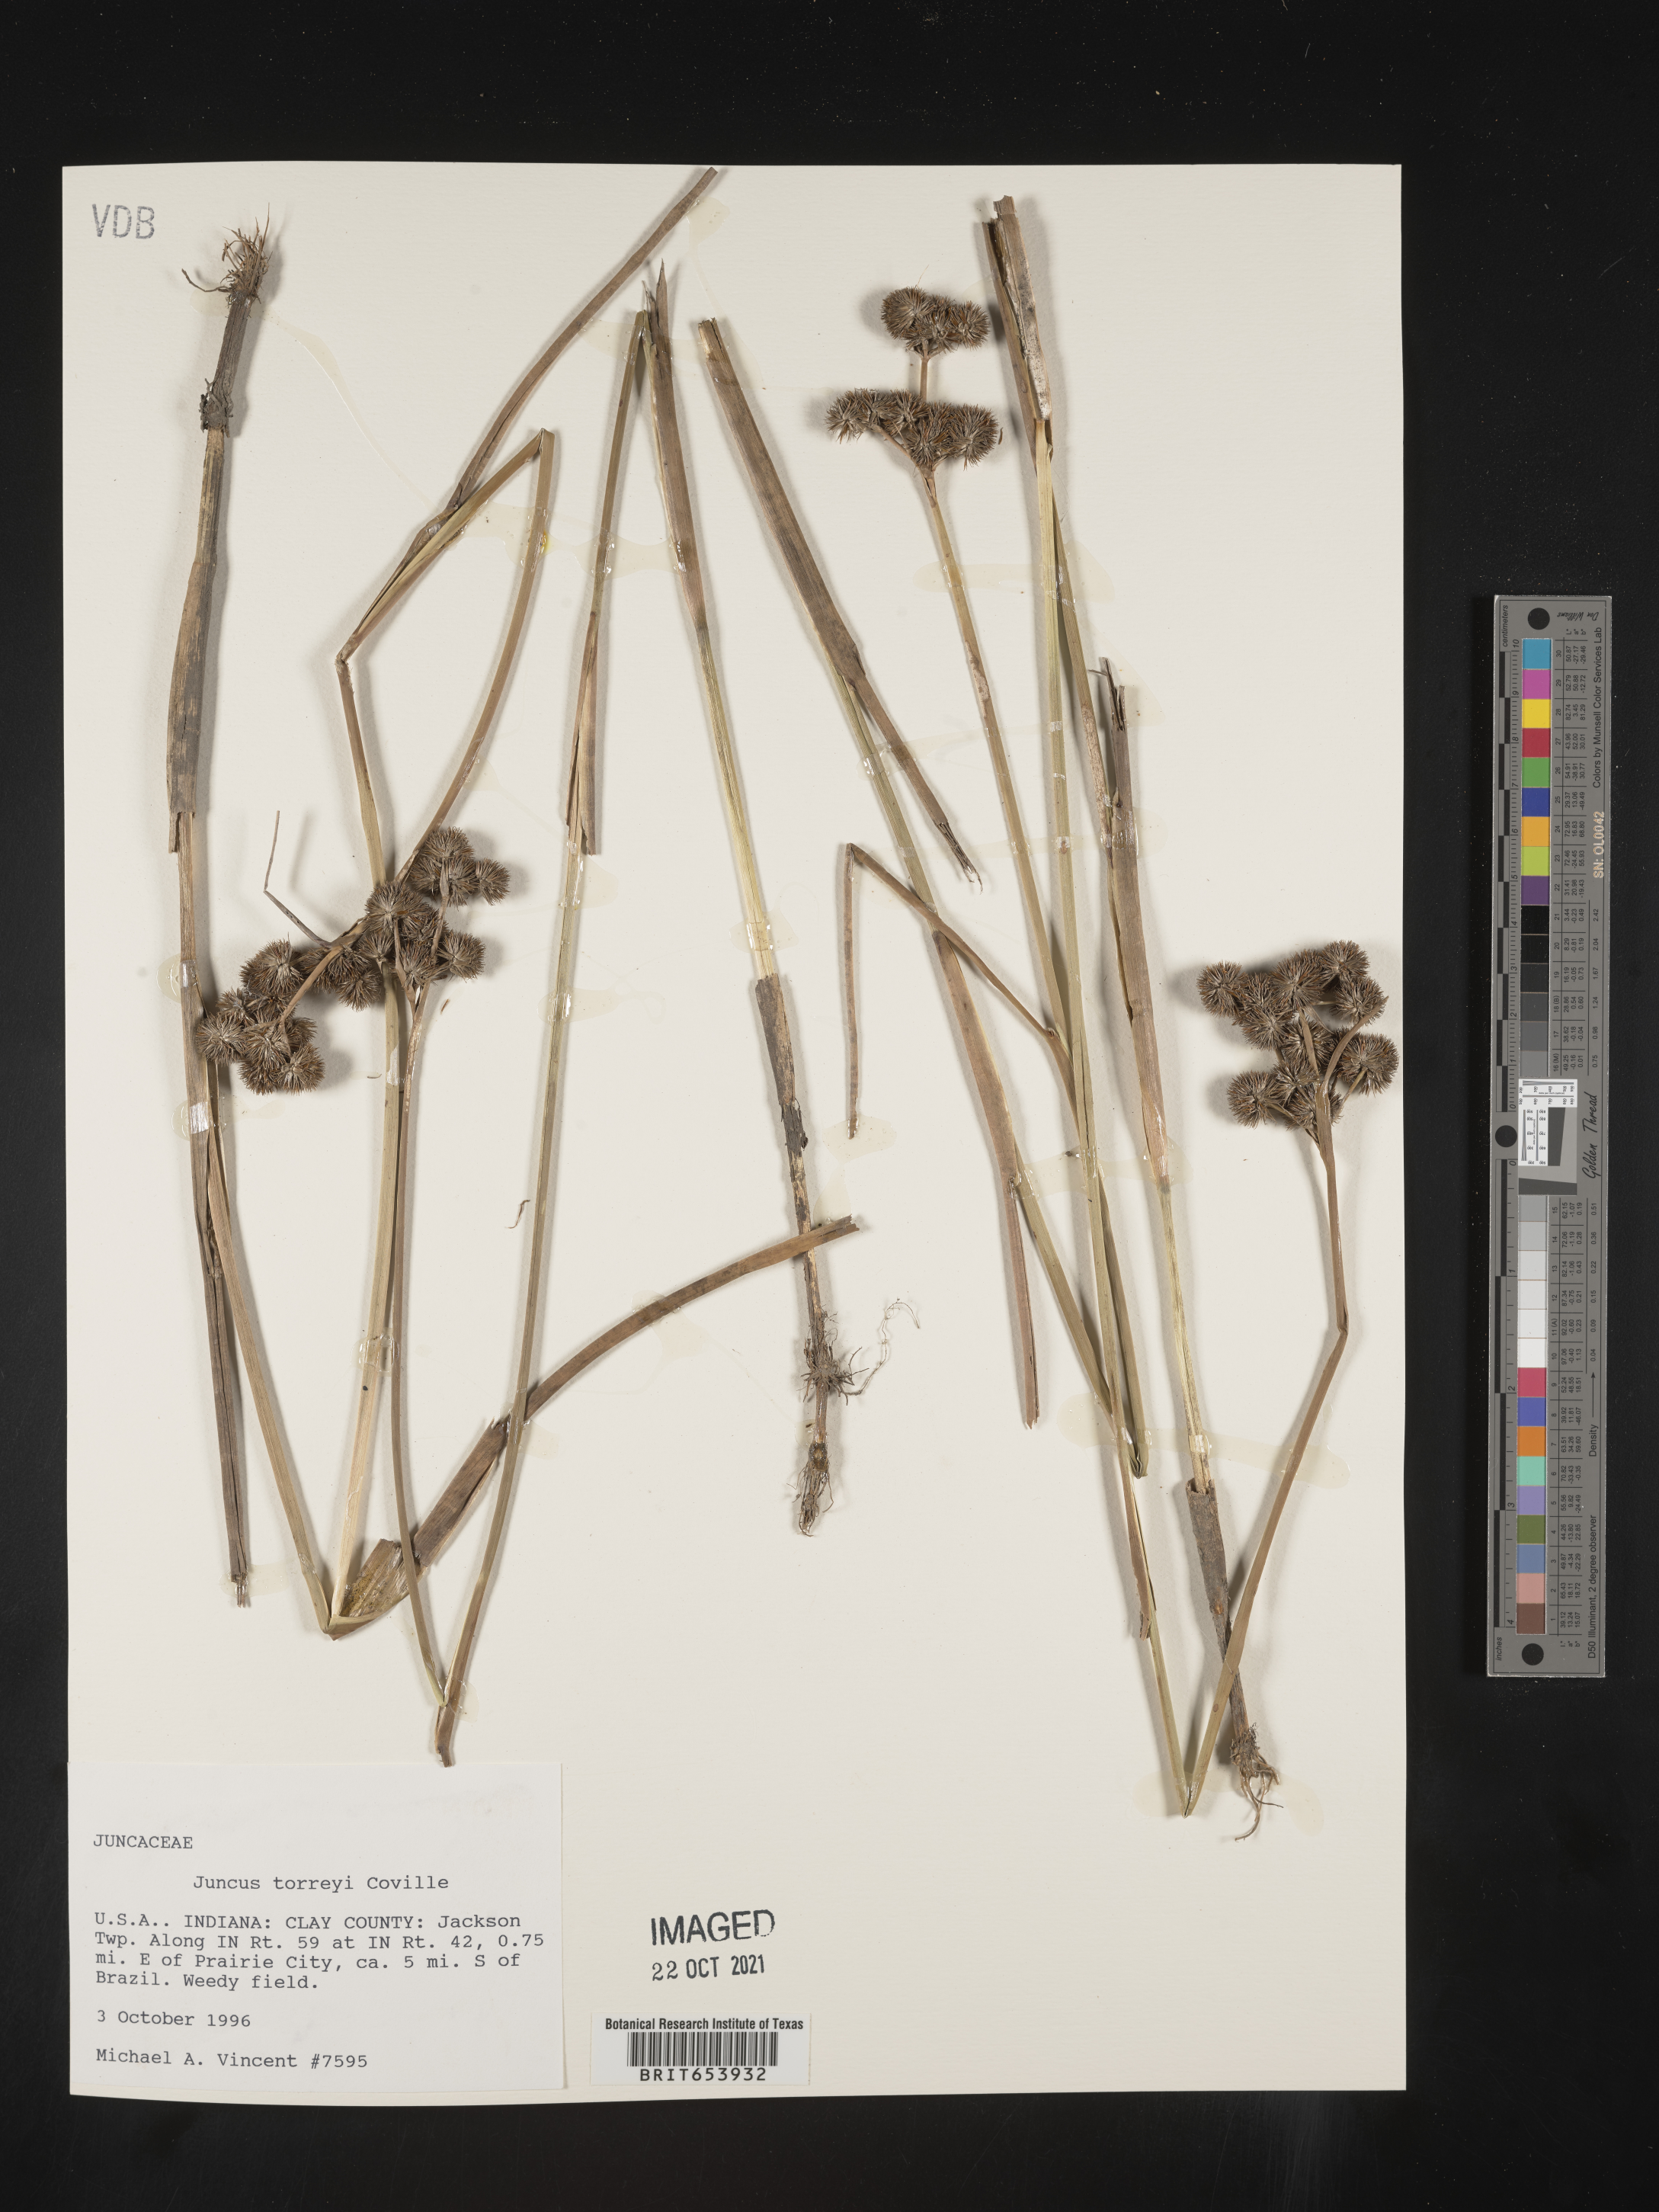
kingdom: Plantae
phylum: Tracheophyta
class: Liliopsida
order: Poales
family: Juncaceae
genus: Juncus
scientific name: Juncus torreyi
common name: Torrey's rush
